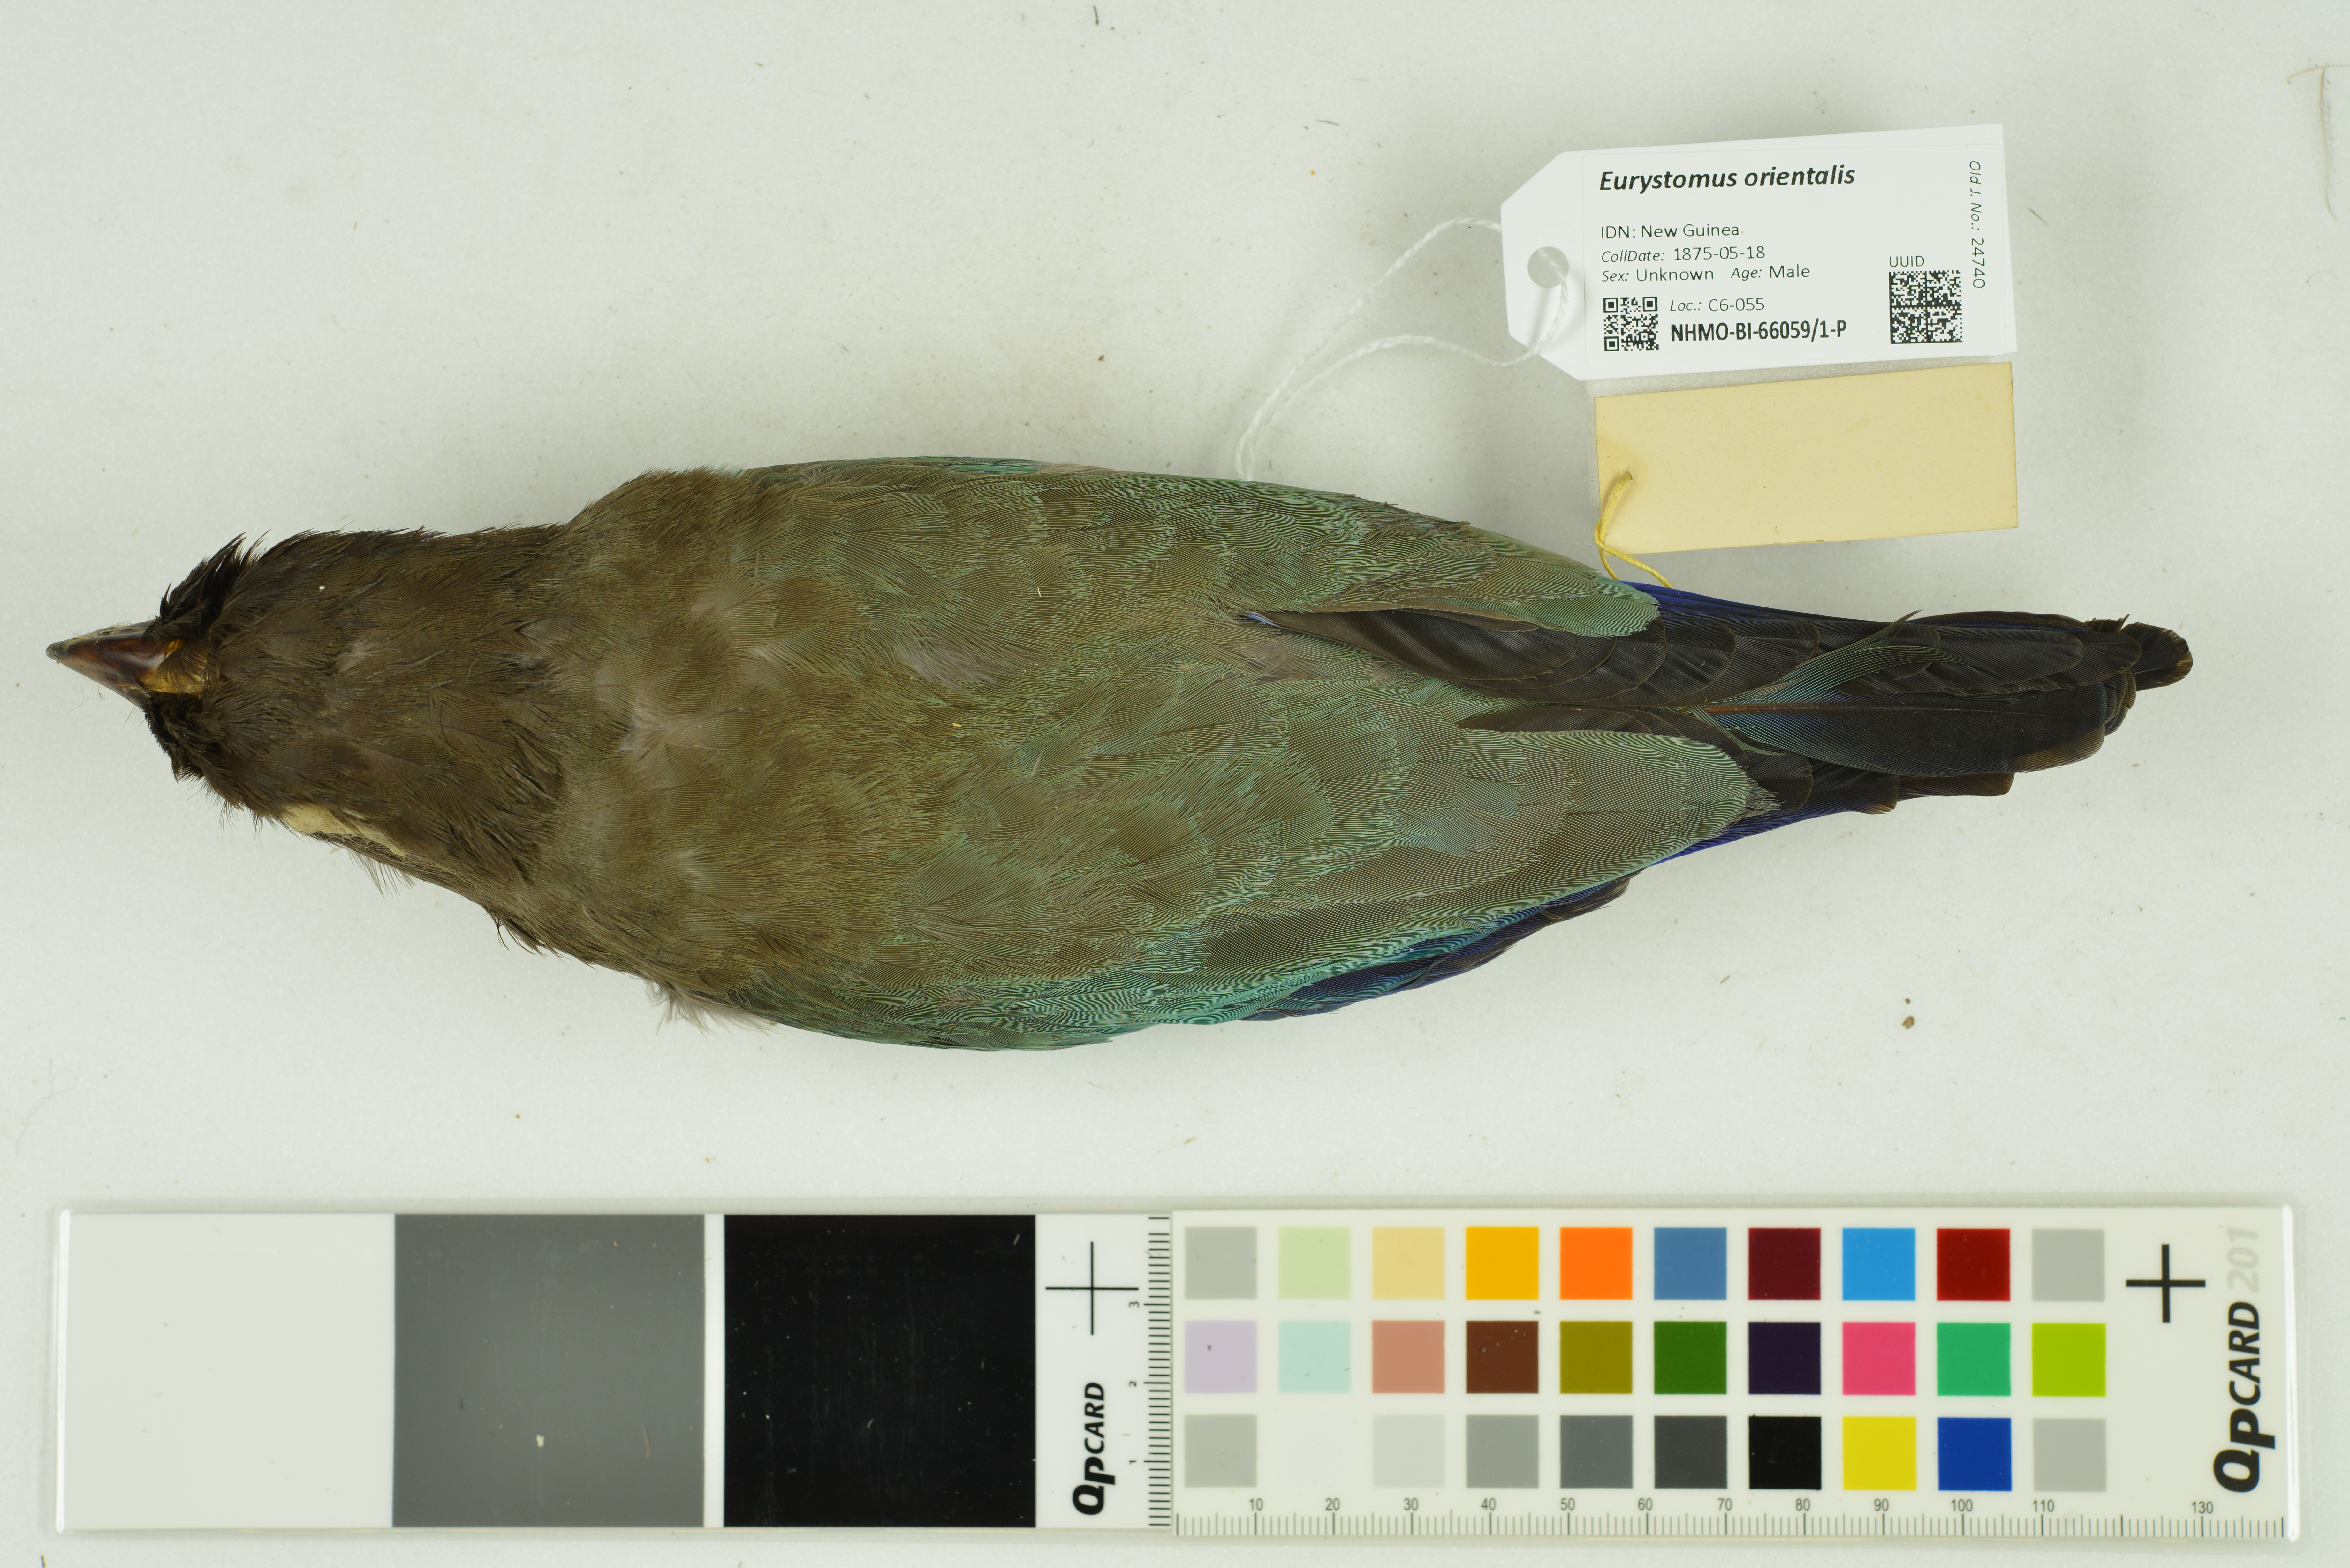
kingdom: Animalia
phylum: Chordata
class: Aves
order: Coraciiformes
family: Coraciidae
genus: Eurystomus
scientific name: Eurystomus orientalis
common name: Oriental dollarbird
